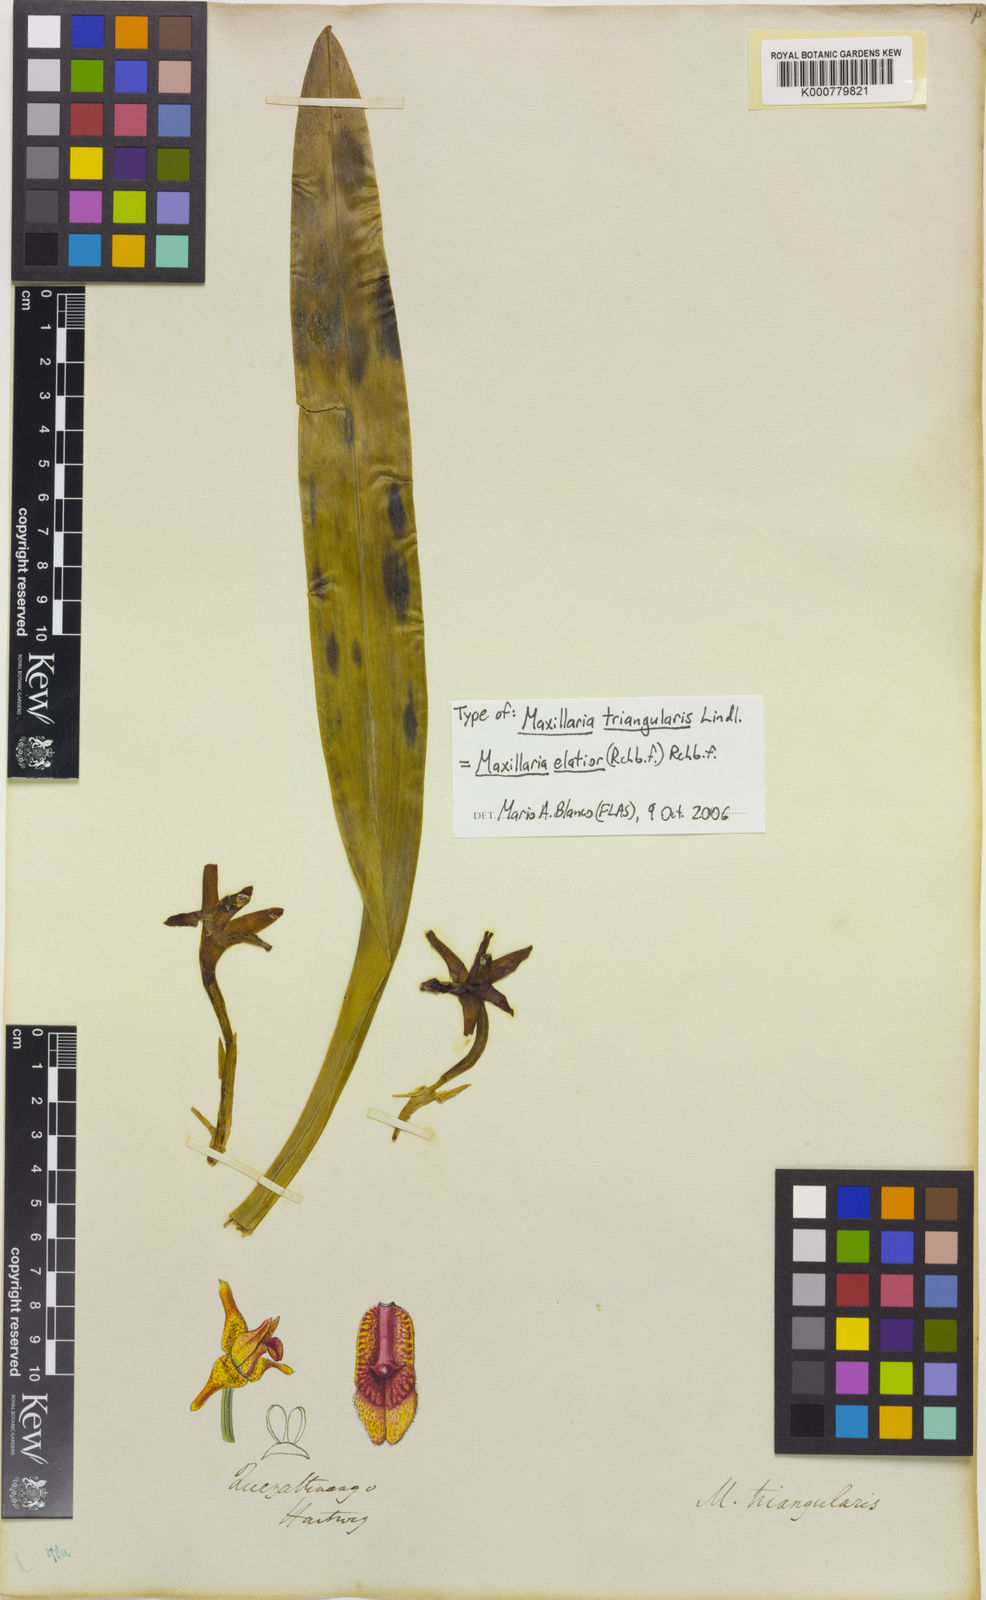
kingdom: Plantae
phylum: Tracheophyta
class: Liliopsida
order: Asparagales
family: Orchidaceae
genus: Maxillaria
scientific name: Maxillaria elatior
